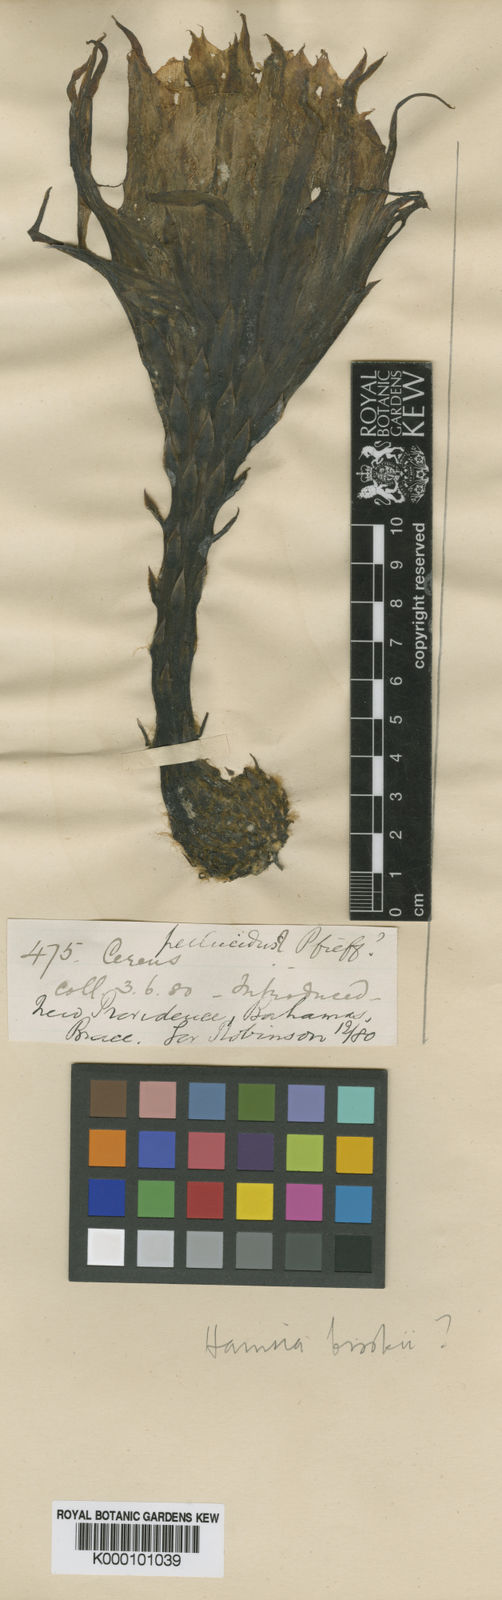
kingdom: Plantae
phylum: Tracheophyta
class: Magnoliopsida
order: Caryophyllales
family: Cactaceae
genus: Harrisia
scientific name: Harrisia brookii
